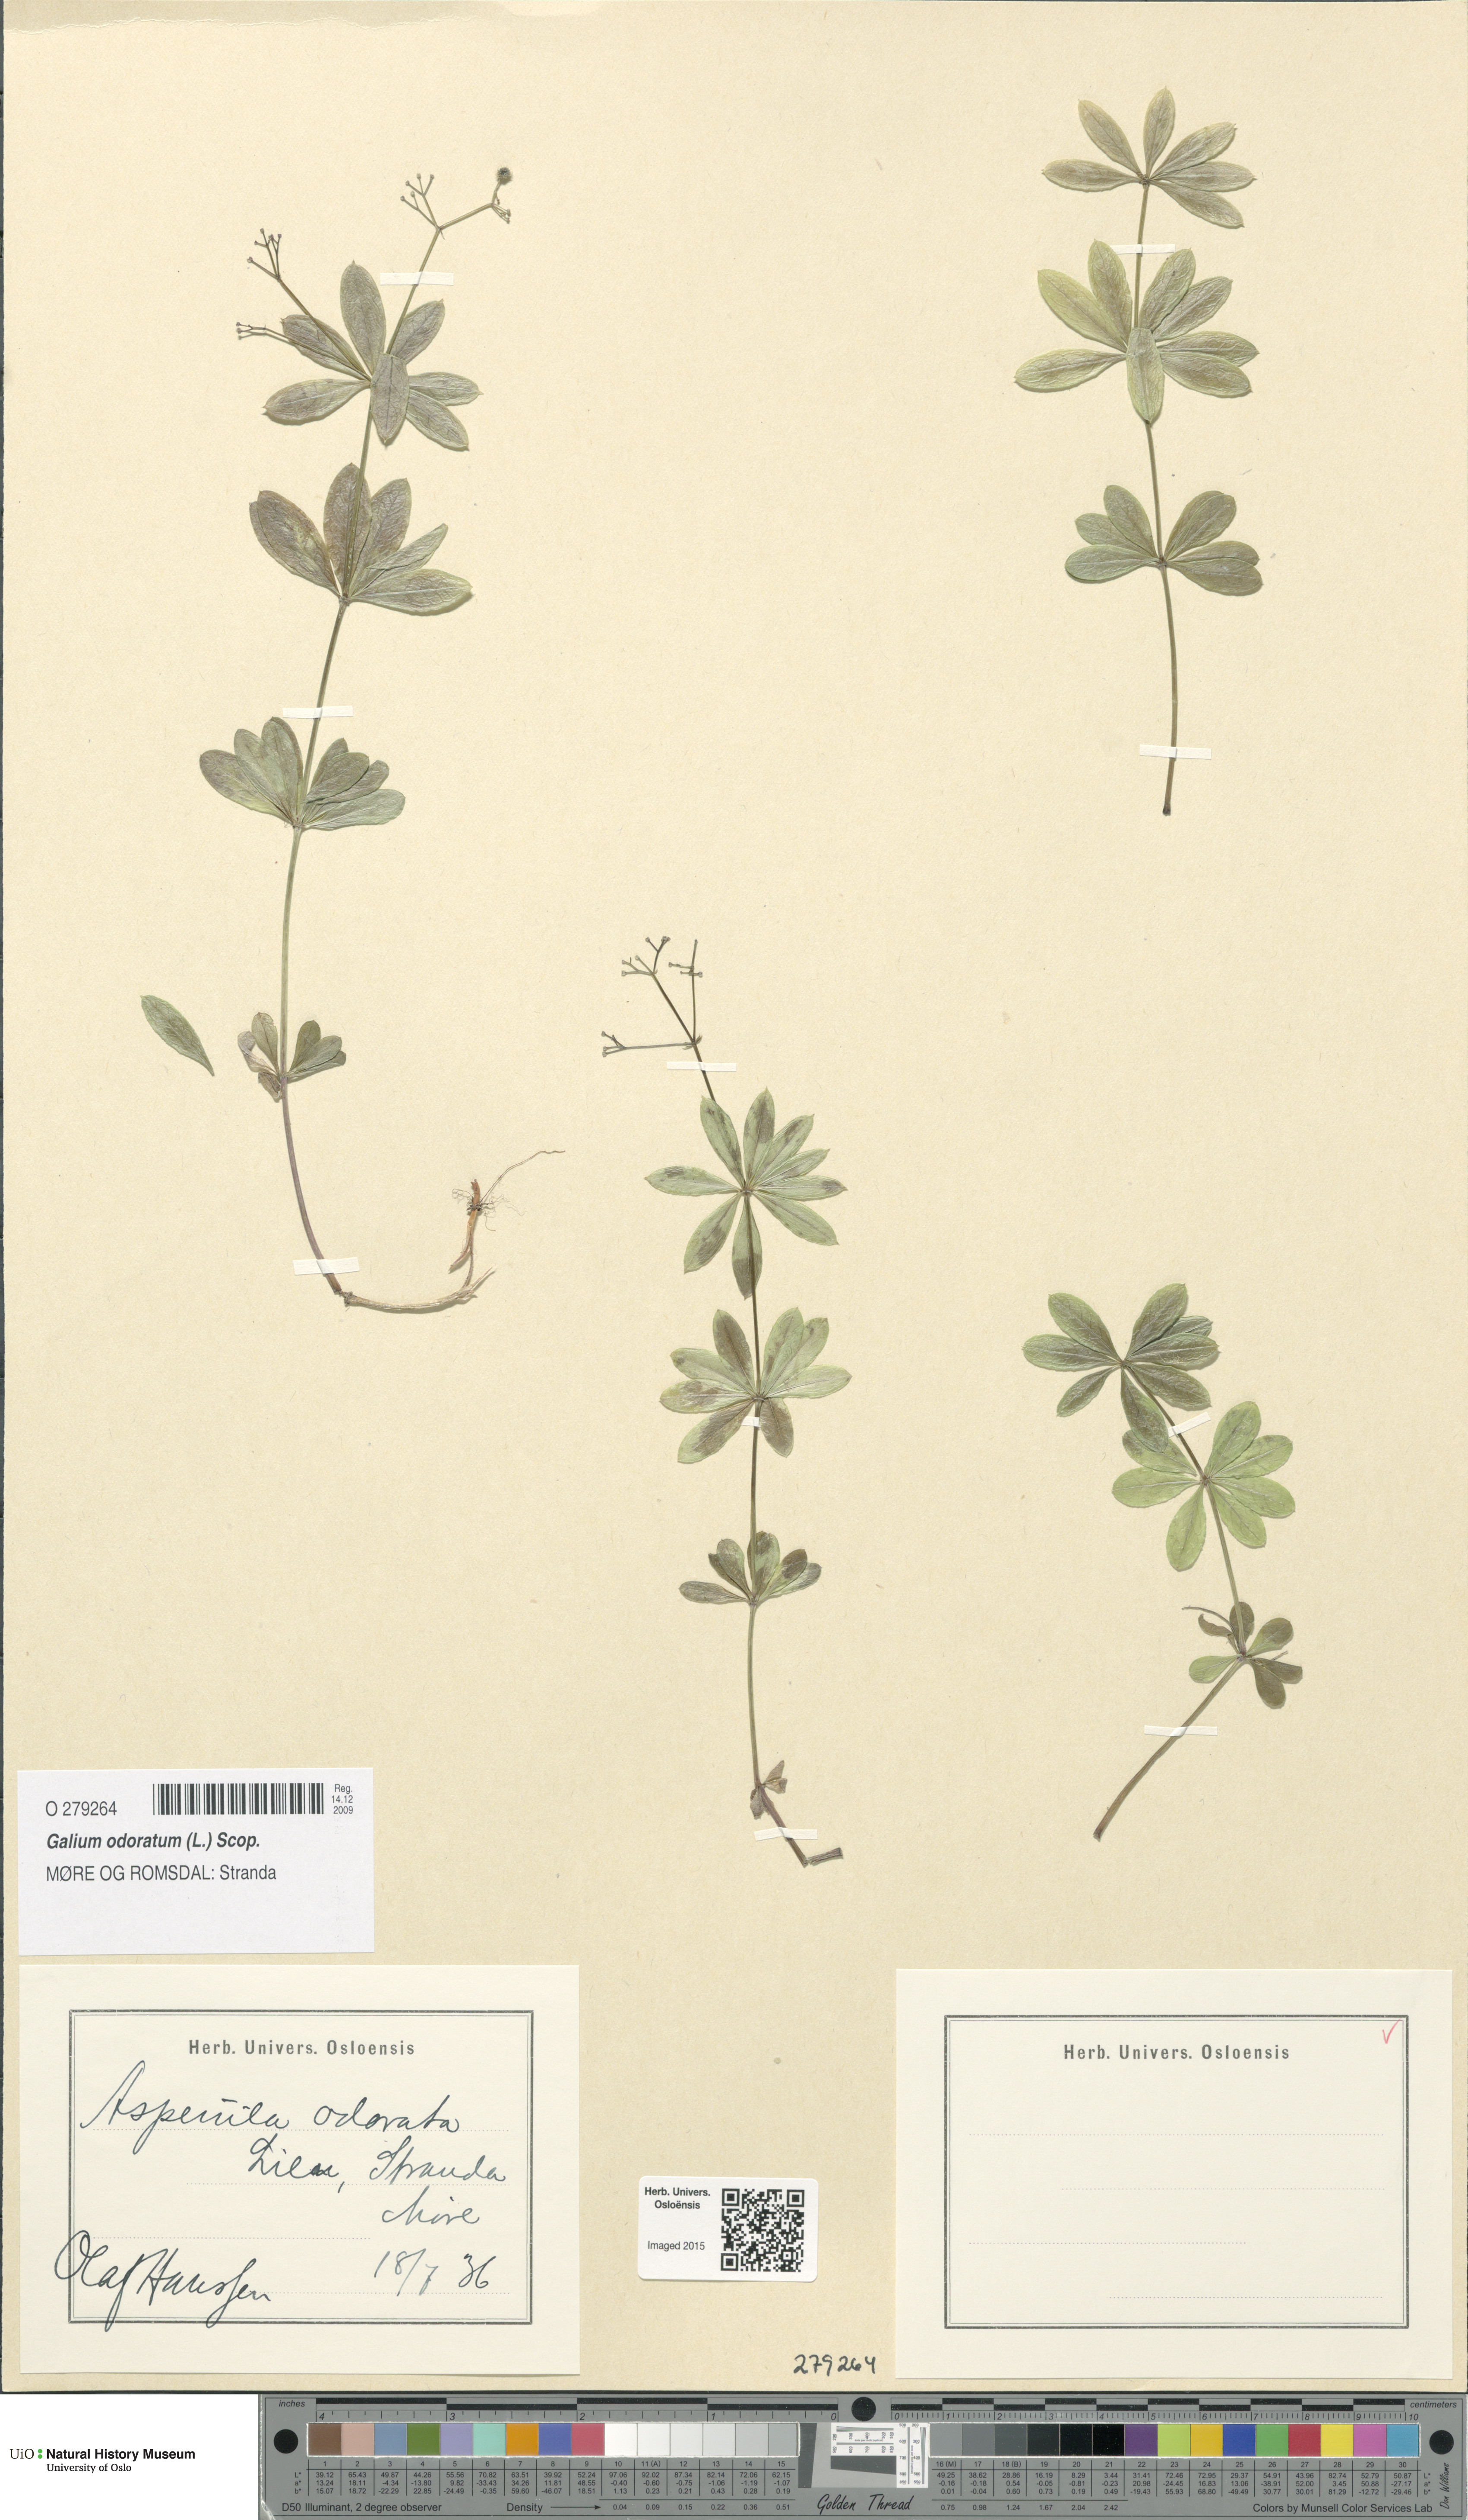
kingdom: Plantae
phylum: Tracheophyta
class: Magnoliopsida
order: Gentianales
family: Rubiaceae
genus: Galium
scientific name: Galium odoratum
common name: Sweet woodruff
